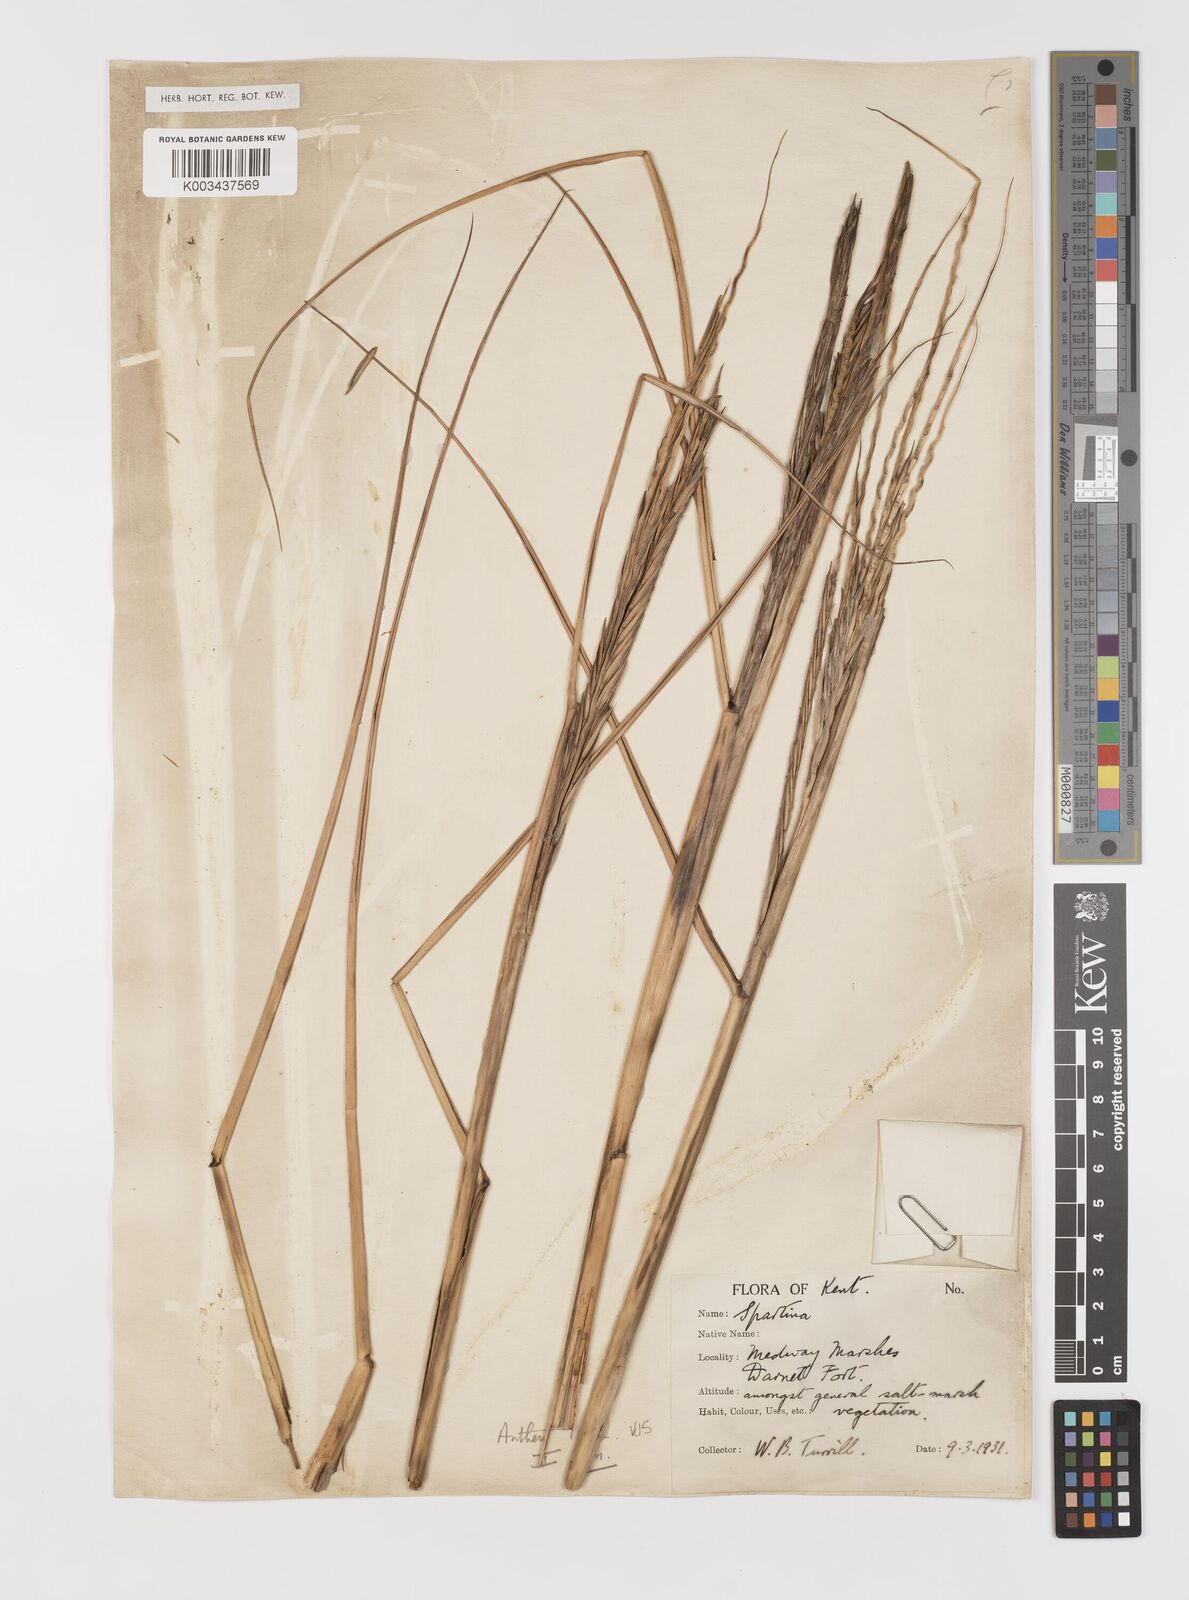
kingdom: Plantae
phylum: Tracheophyta
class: Liliopsida
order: Poales
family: Poaceae
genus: Sporobolus
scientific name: Sporobolus anglicus
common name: English cordgrass
